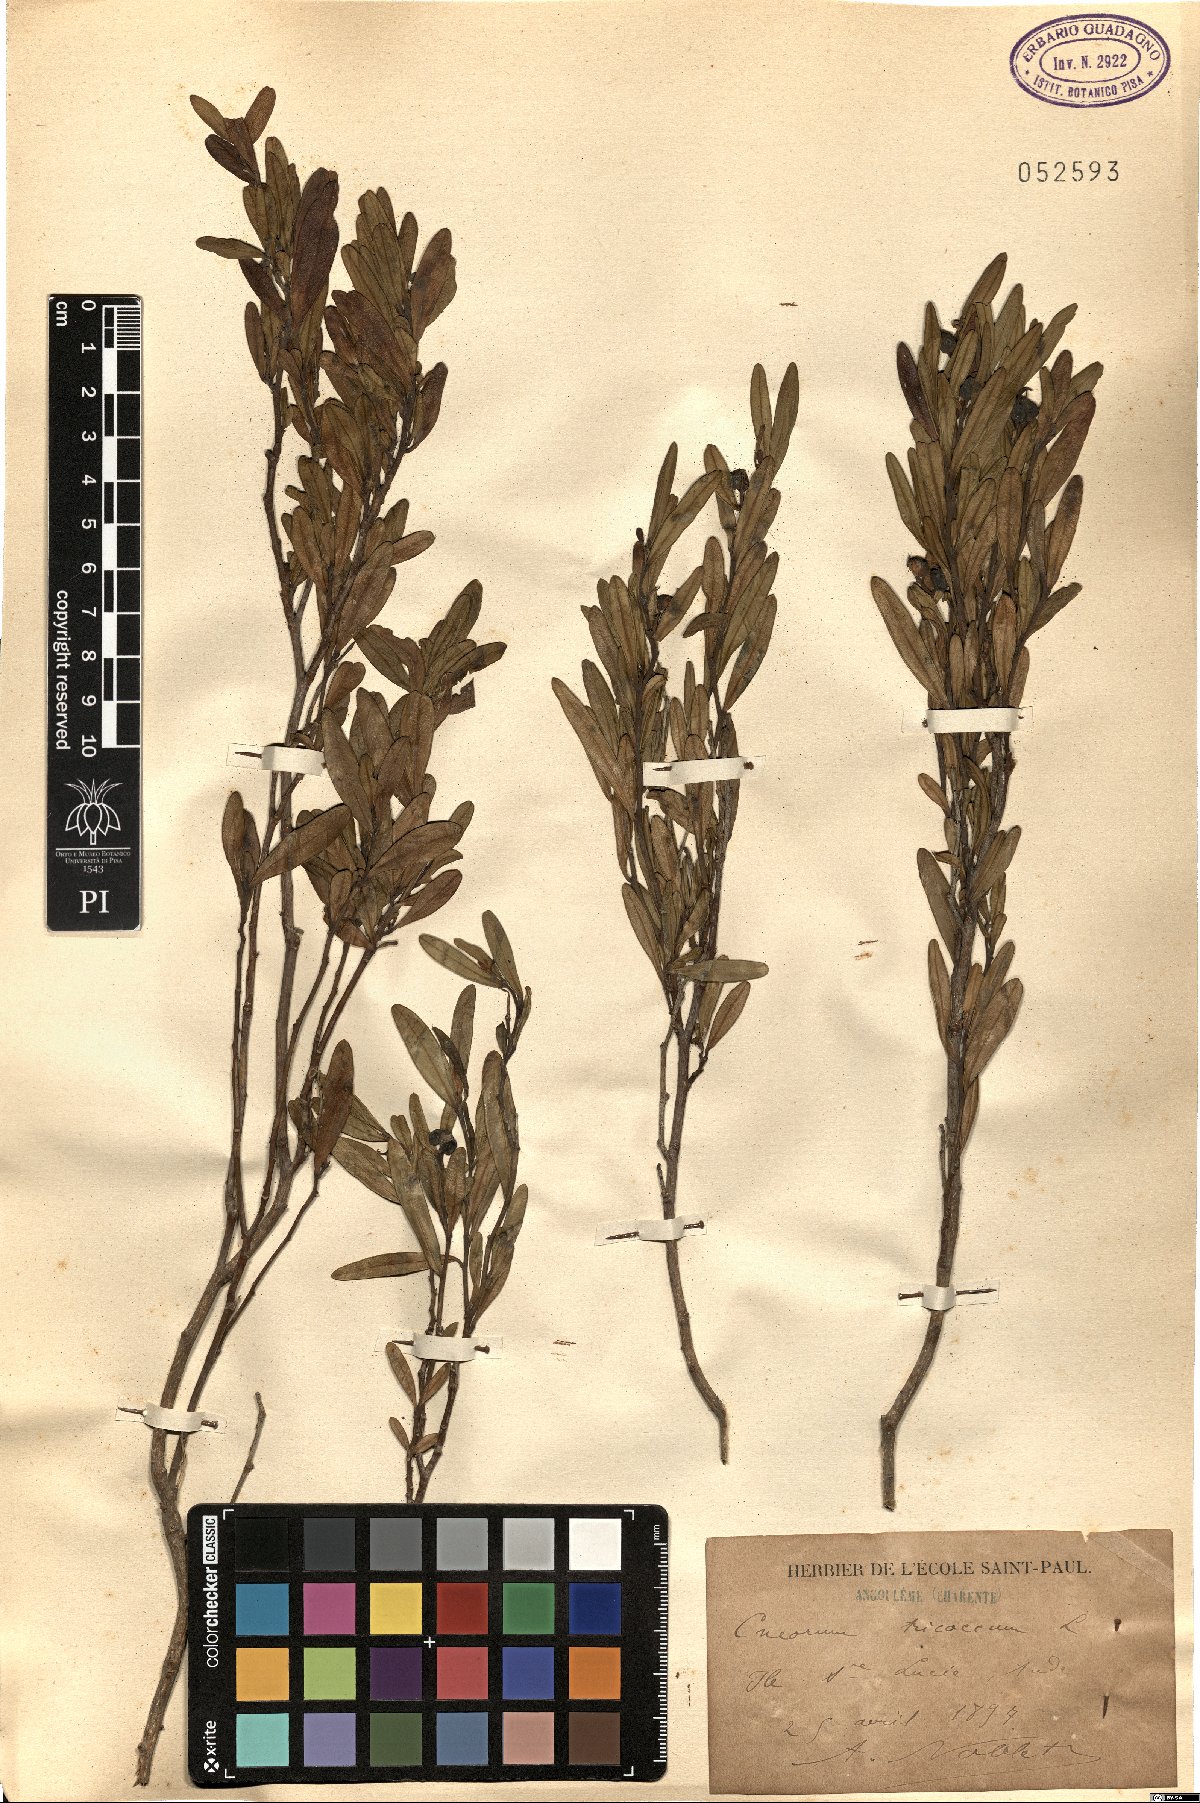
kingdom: Plantae
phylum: Tracheophyta
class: Magnoliopsida
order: Sapindales
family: Rutaceae
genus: Cneorum
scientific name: Cneorum tricoccon
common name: Spurge olive
